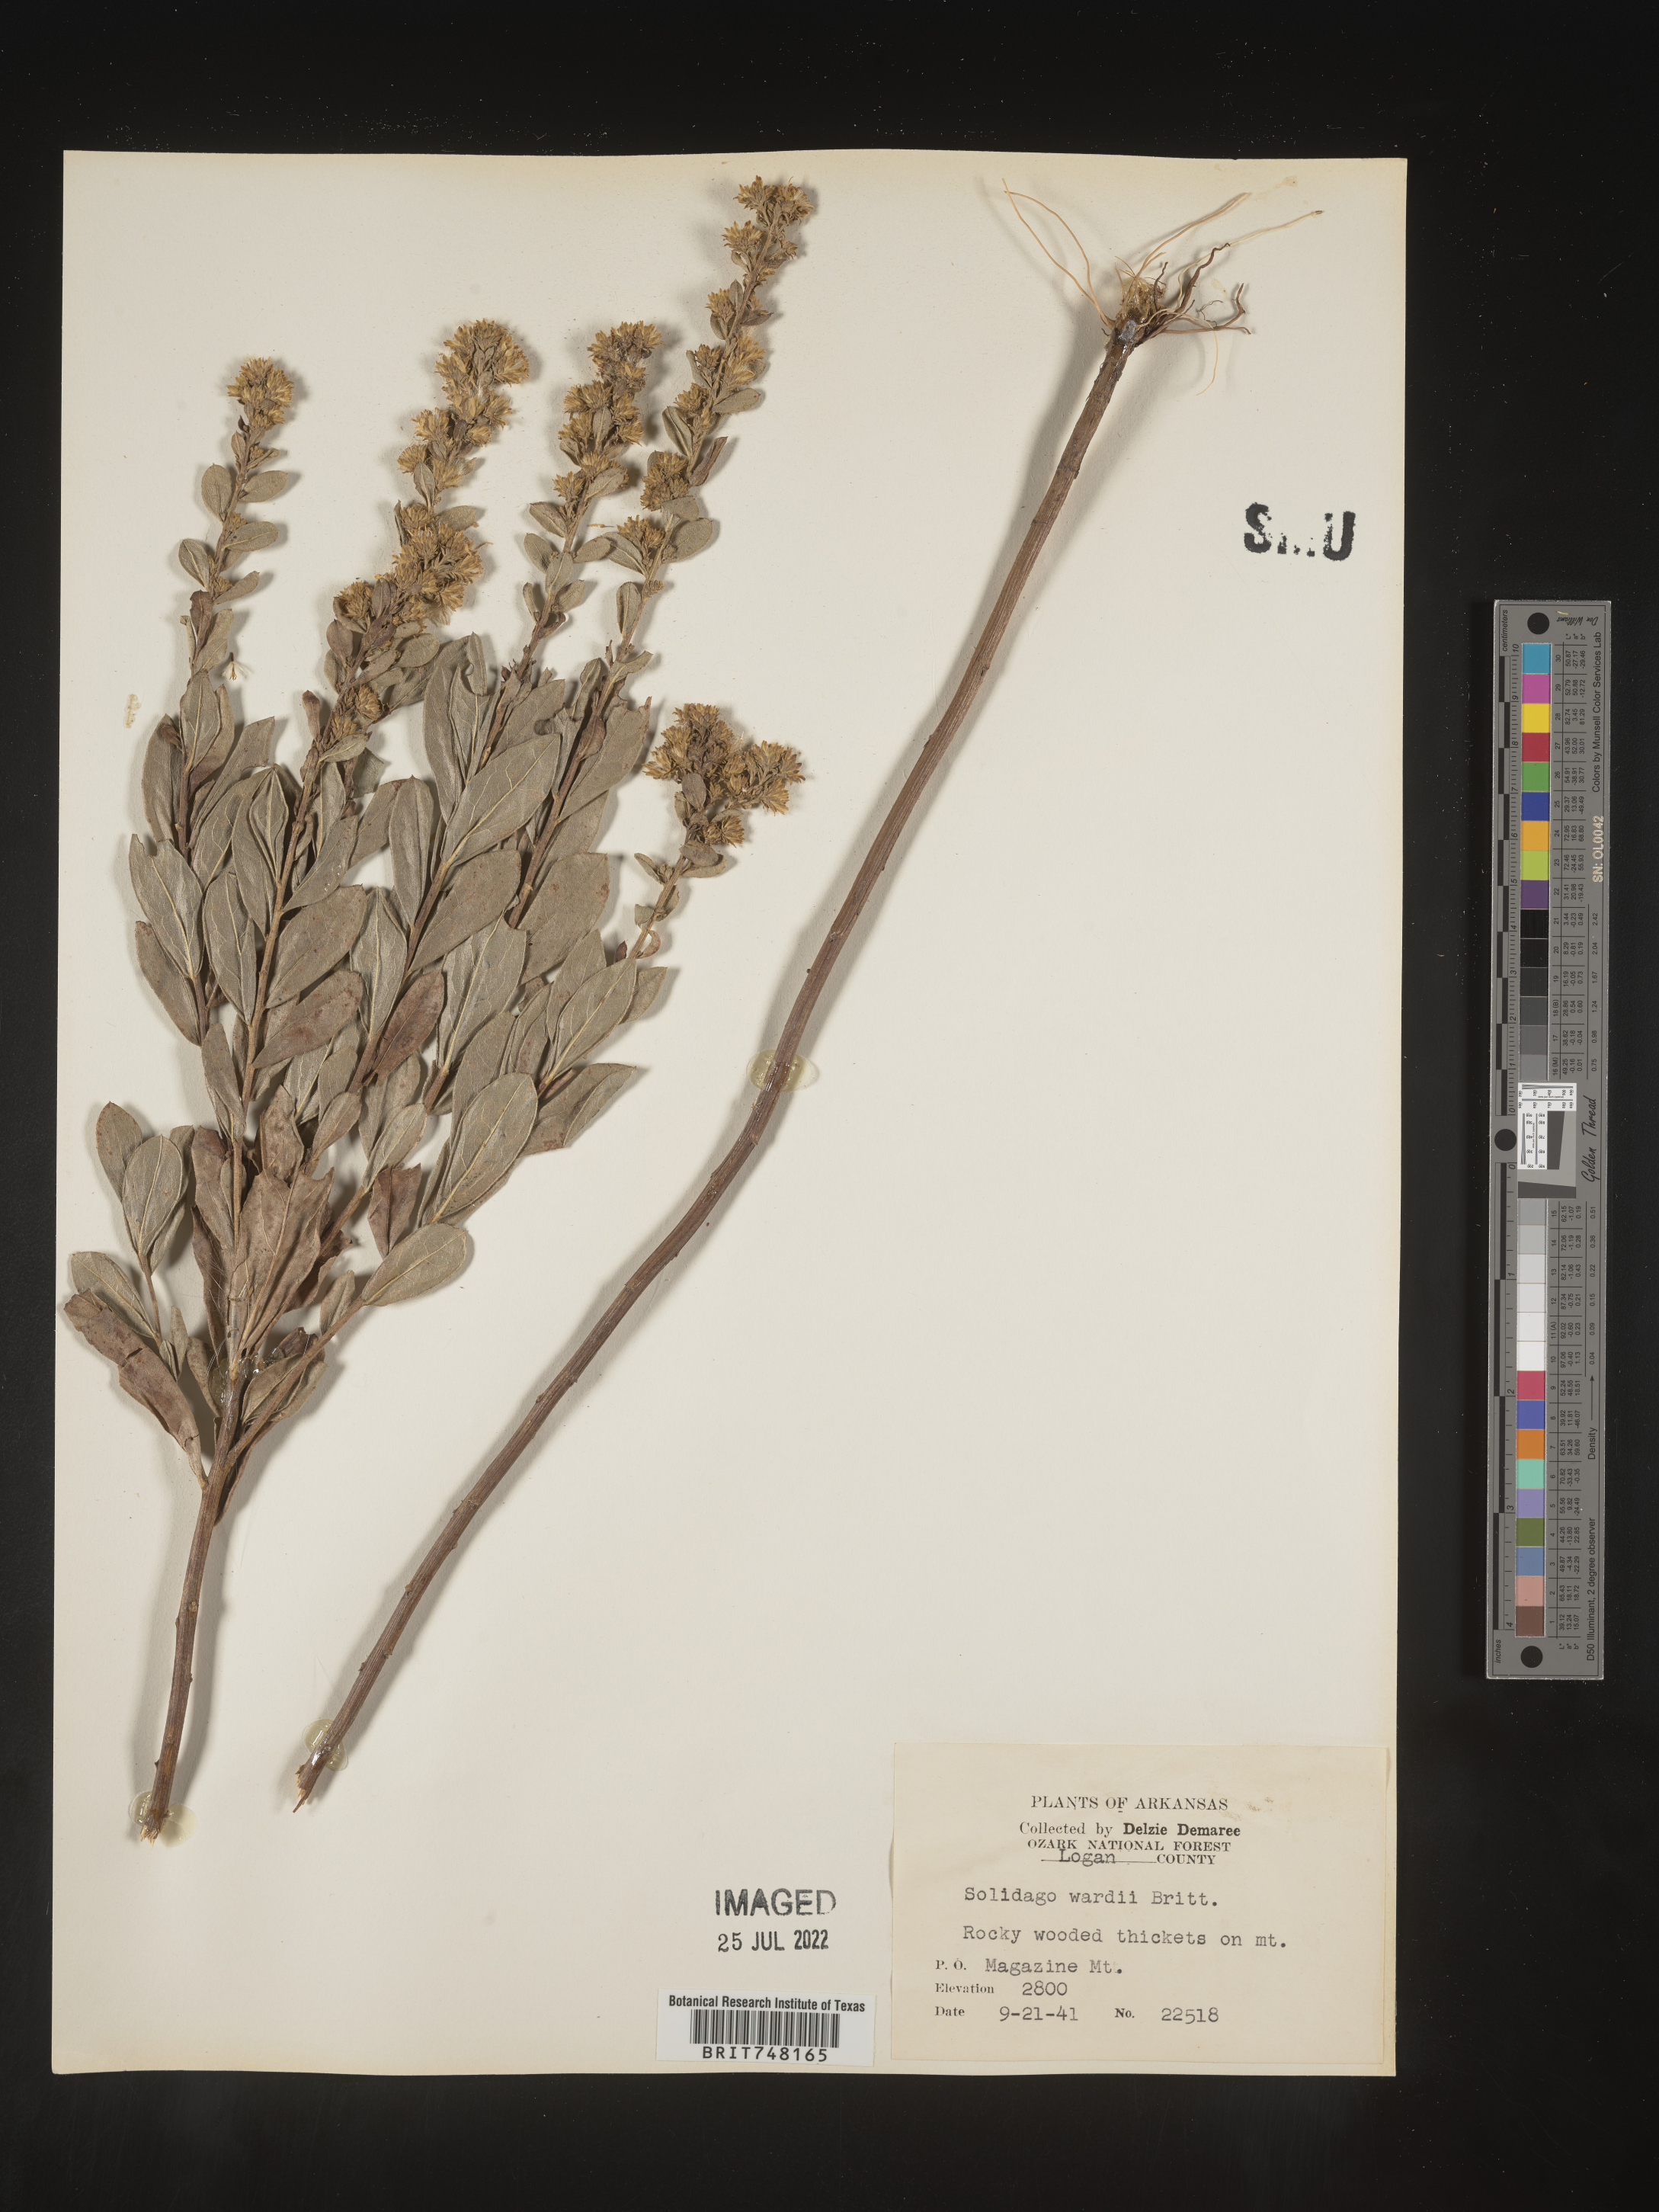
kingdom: Plantae
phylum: Tracheophyta
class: Magnoliopsida
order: Asterales
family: Asteraceae
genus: Solidago
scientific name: Solidago petiolaris
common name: Downy ragged goldenrod
